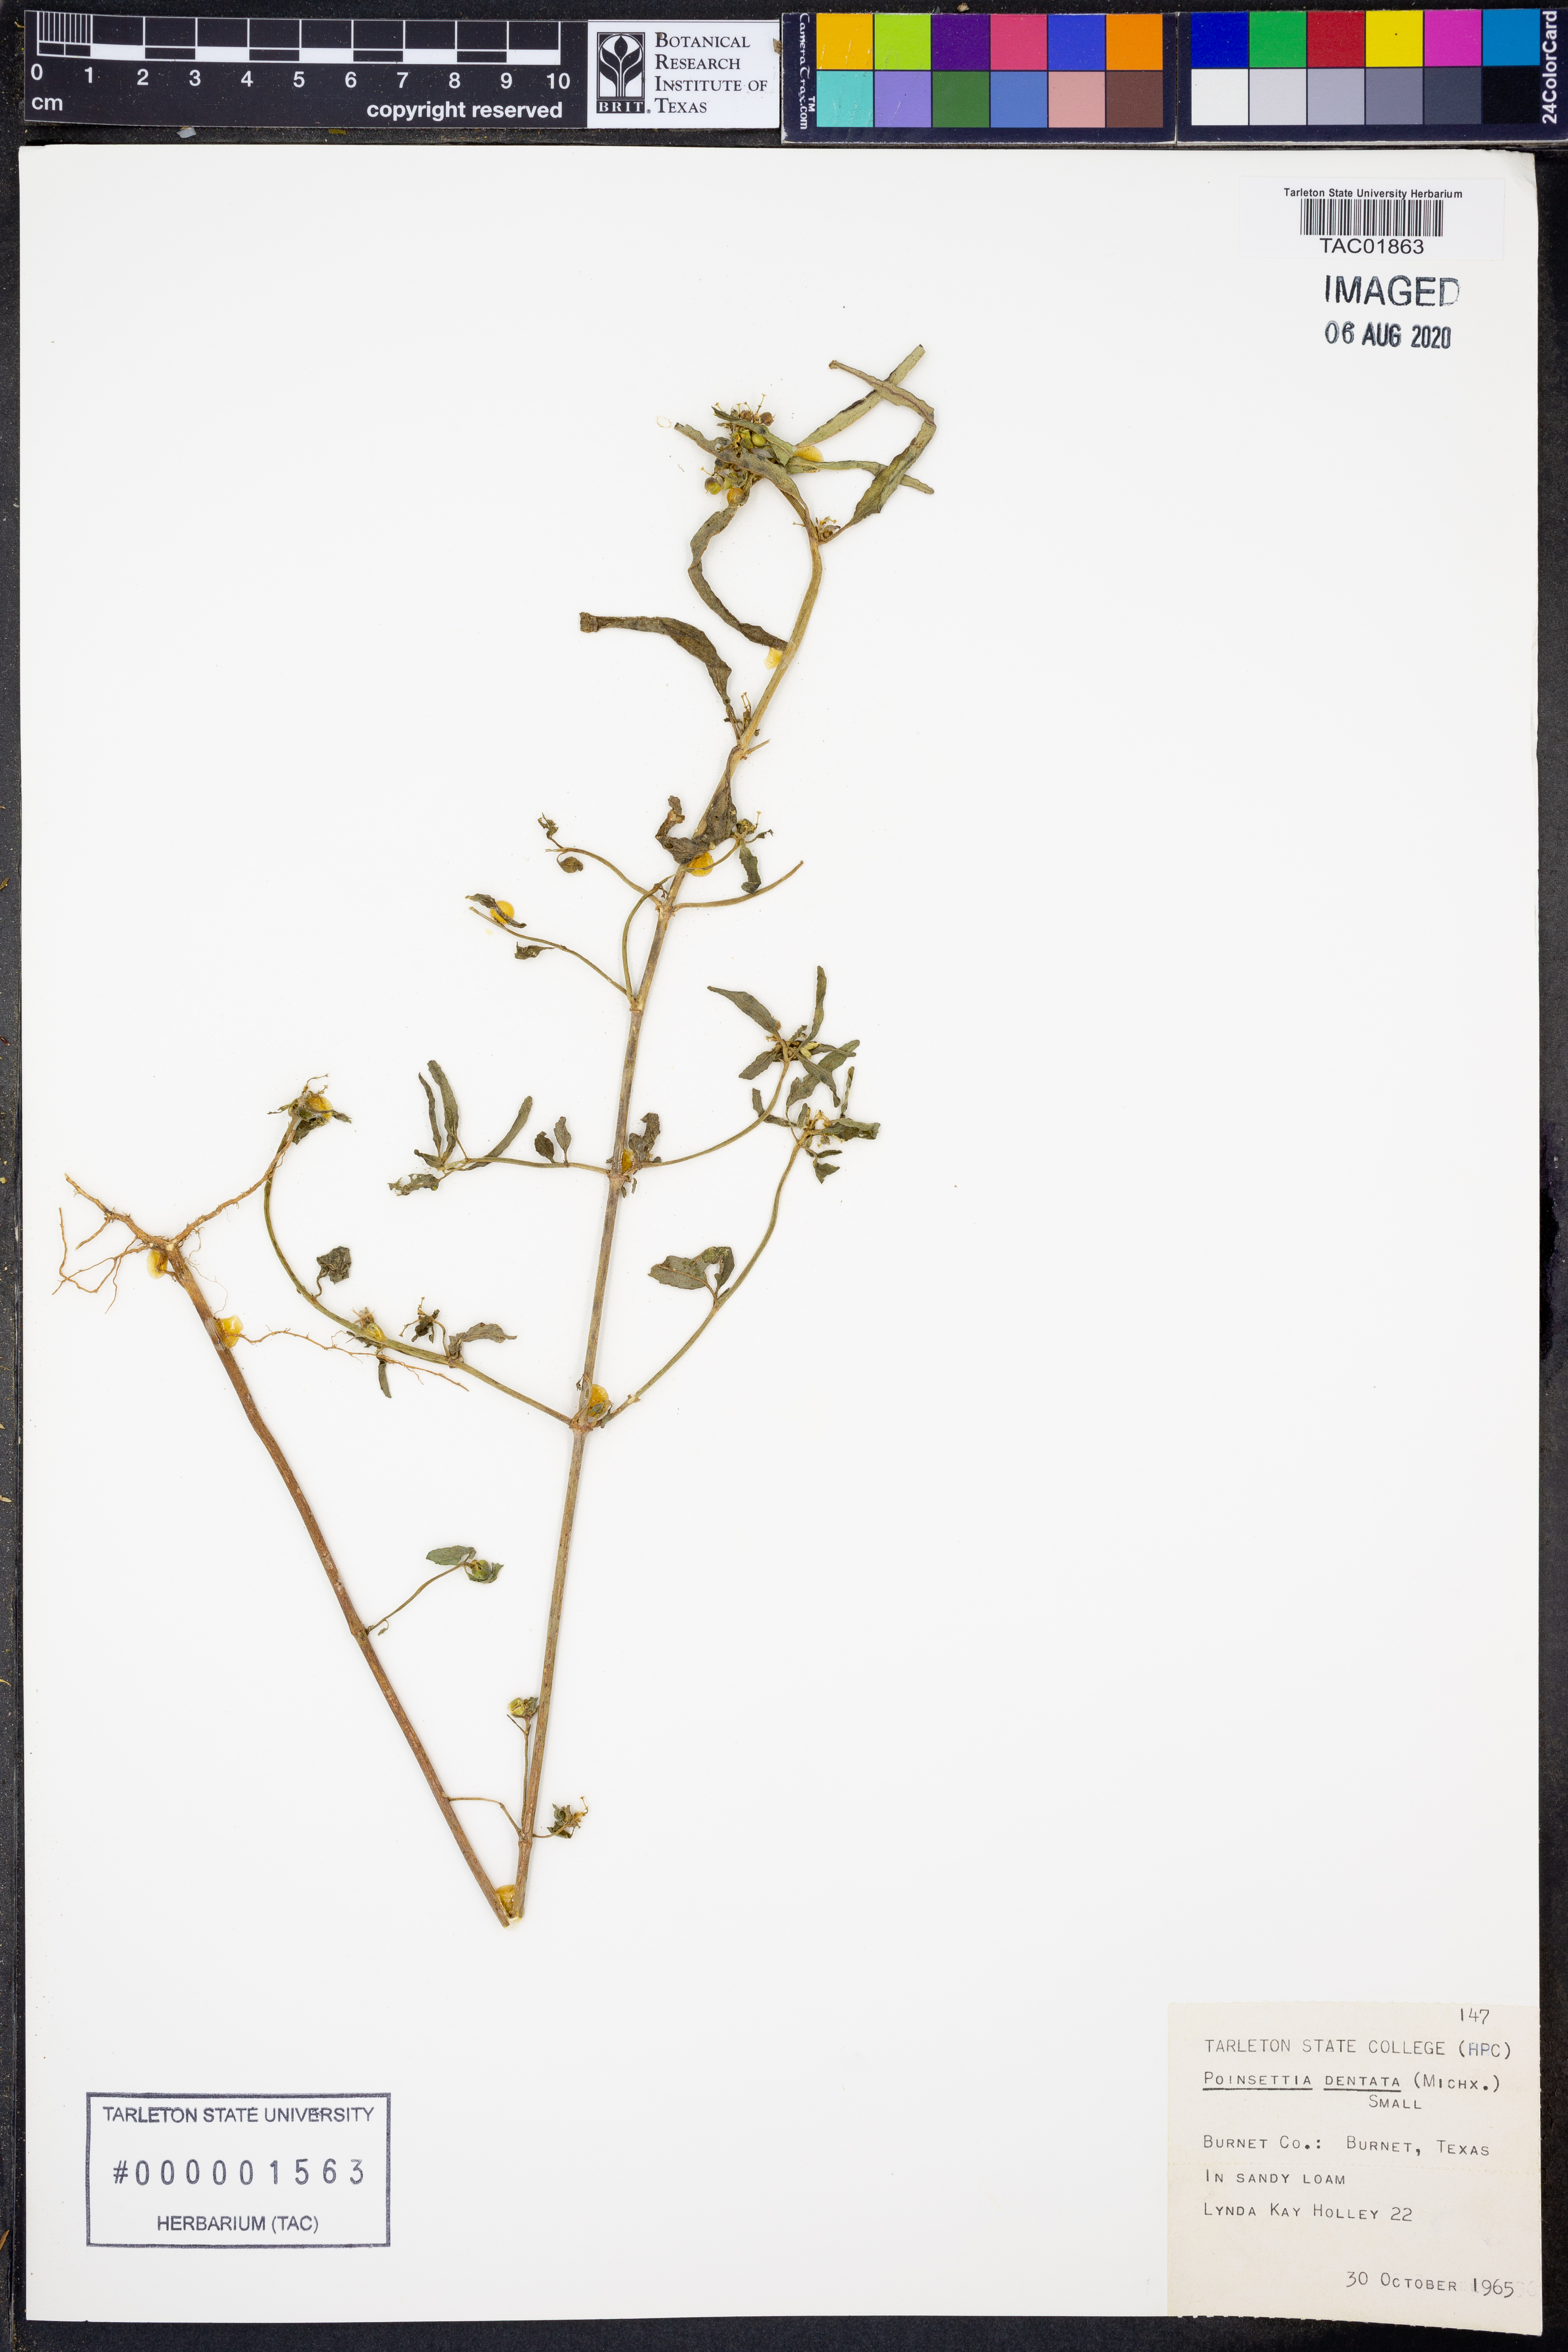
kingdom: Plantae
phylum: Tracheophyta
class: Magnoliopsida
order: Malpighiales
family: Euphorbiaceae
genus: Euphorbia
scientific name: Euphorbia dentata
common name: Dentate spurge
